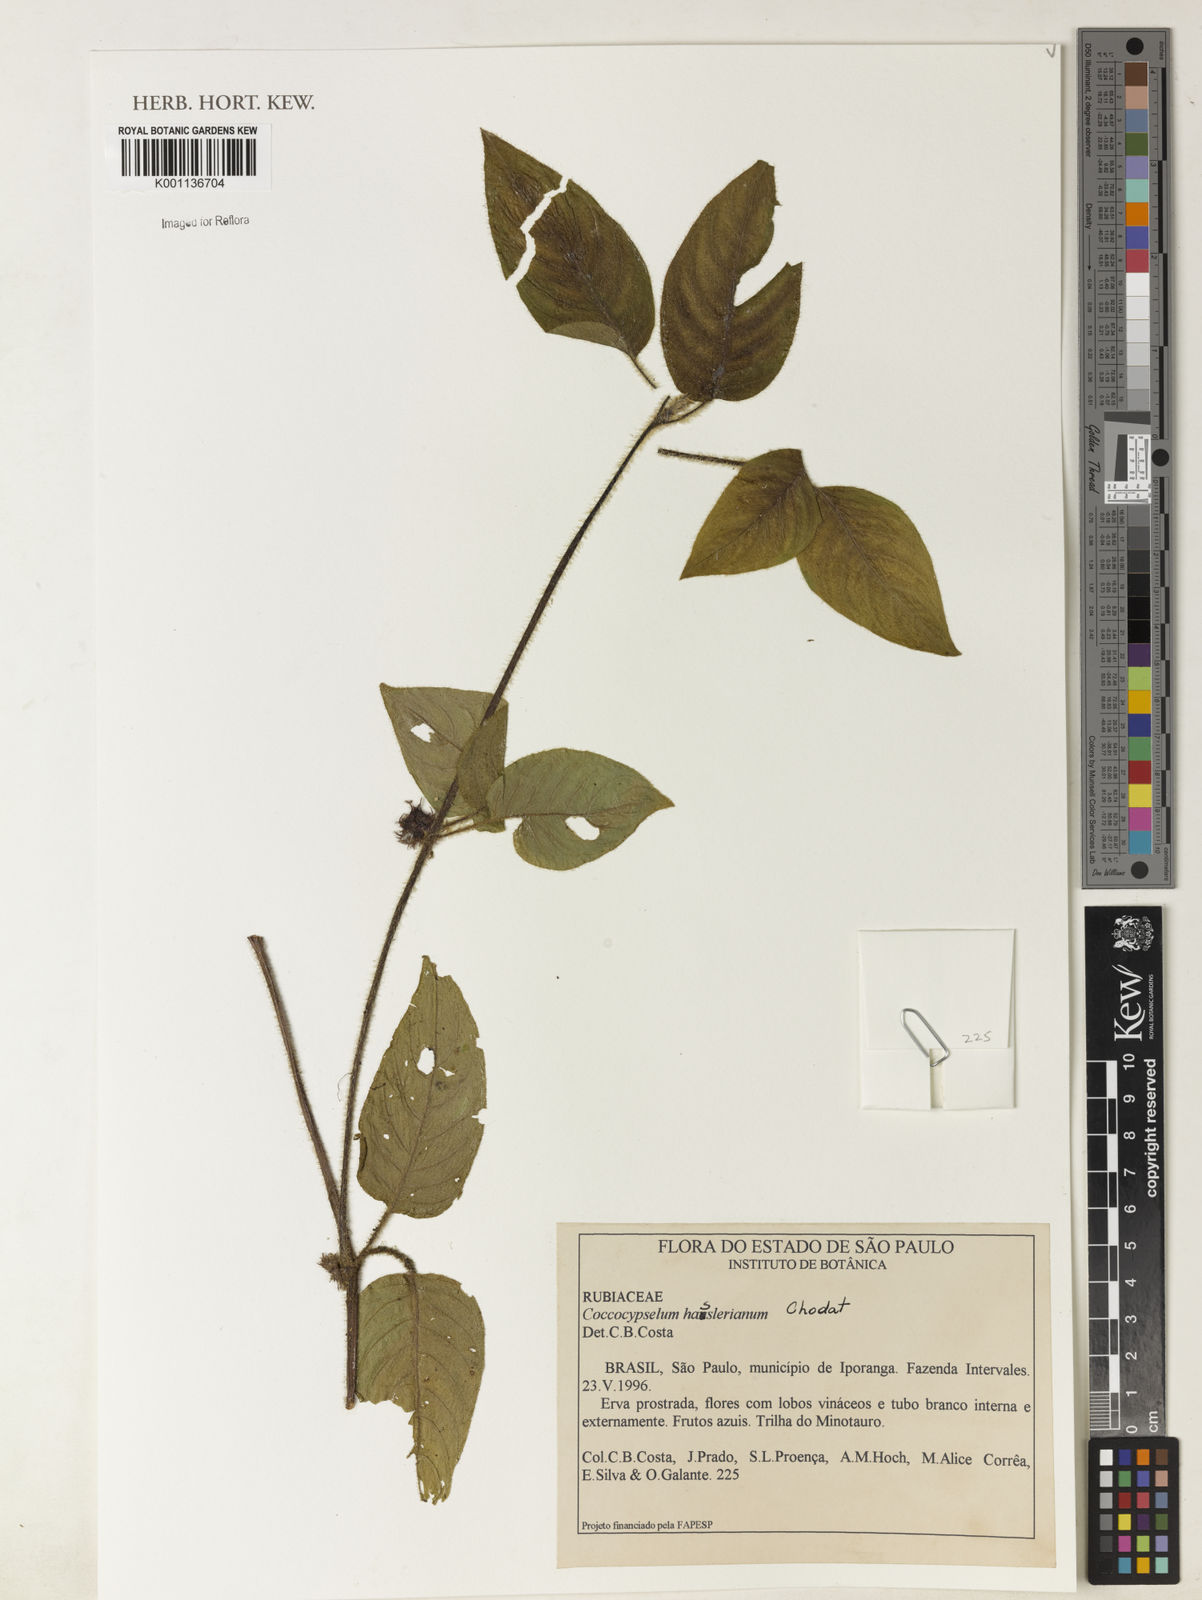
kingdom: Plantae
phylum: Tracheophyta
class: Magnoliopsida
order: Gentianales
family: Rubiaceae
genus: Coccocypselum
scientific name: Coccocypselum hasslerianum
